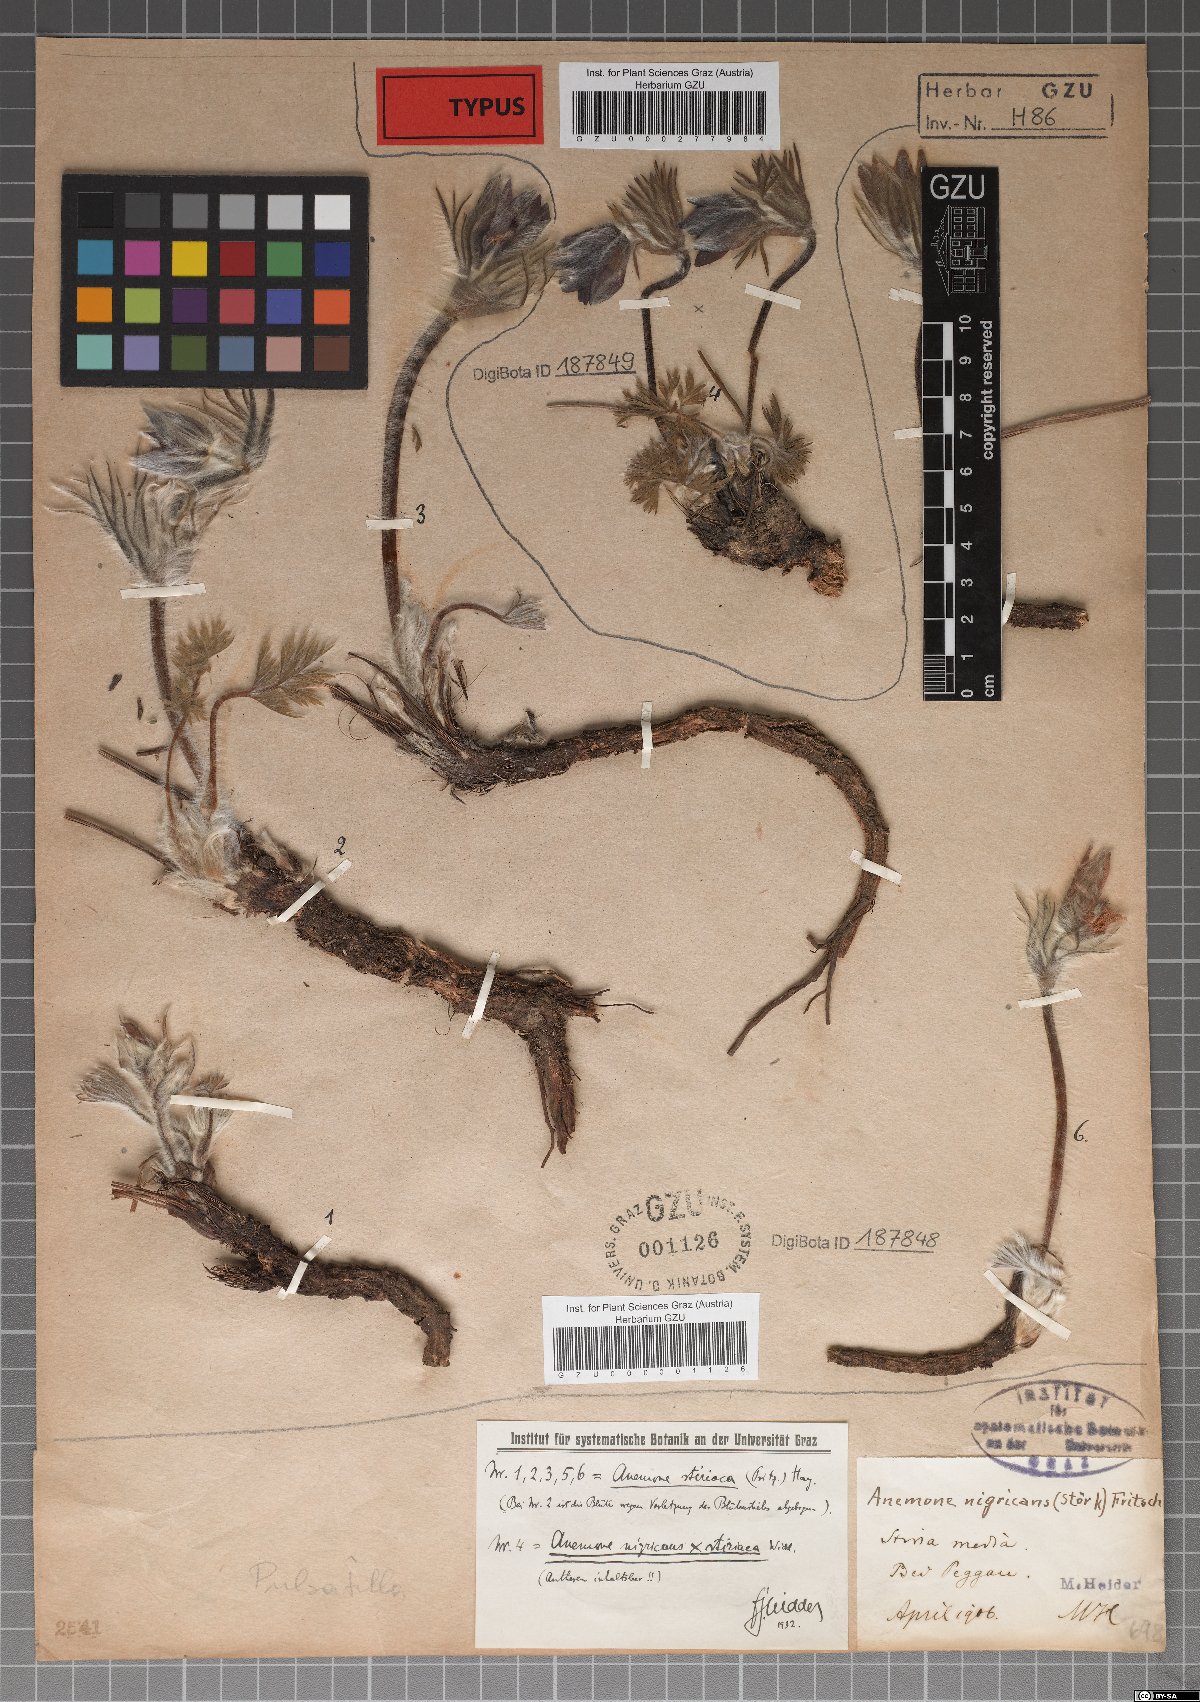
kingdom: Plantae
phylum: Tracheophyta
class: Magnoliopsida
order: Ranunculales
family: Ranunculaceae
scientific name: Ranunculaceae
